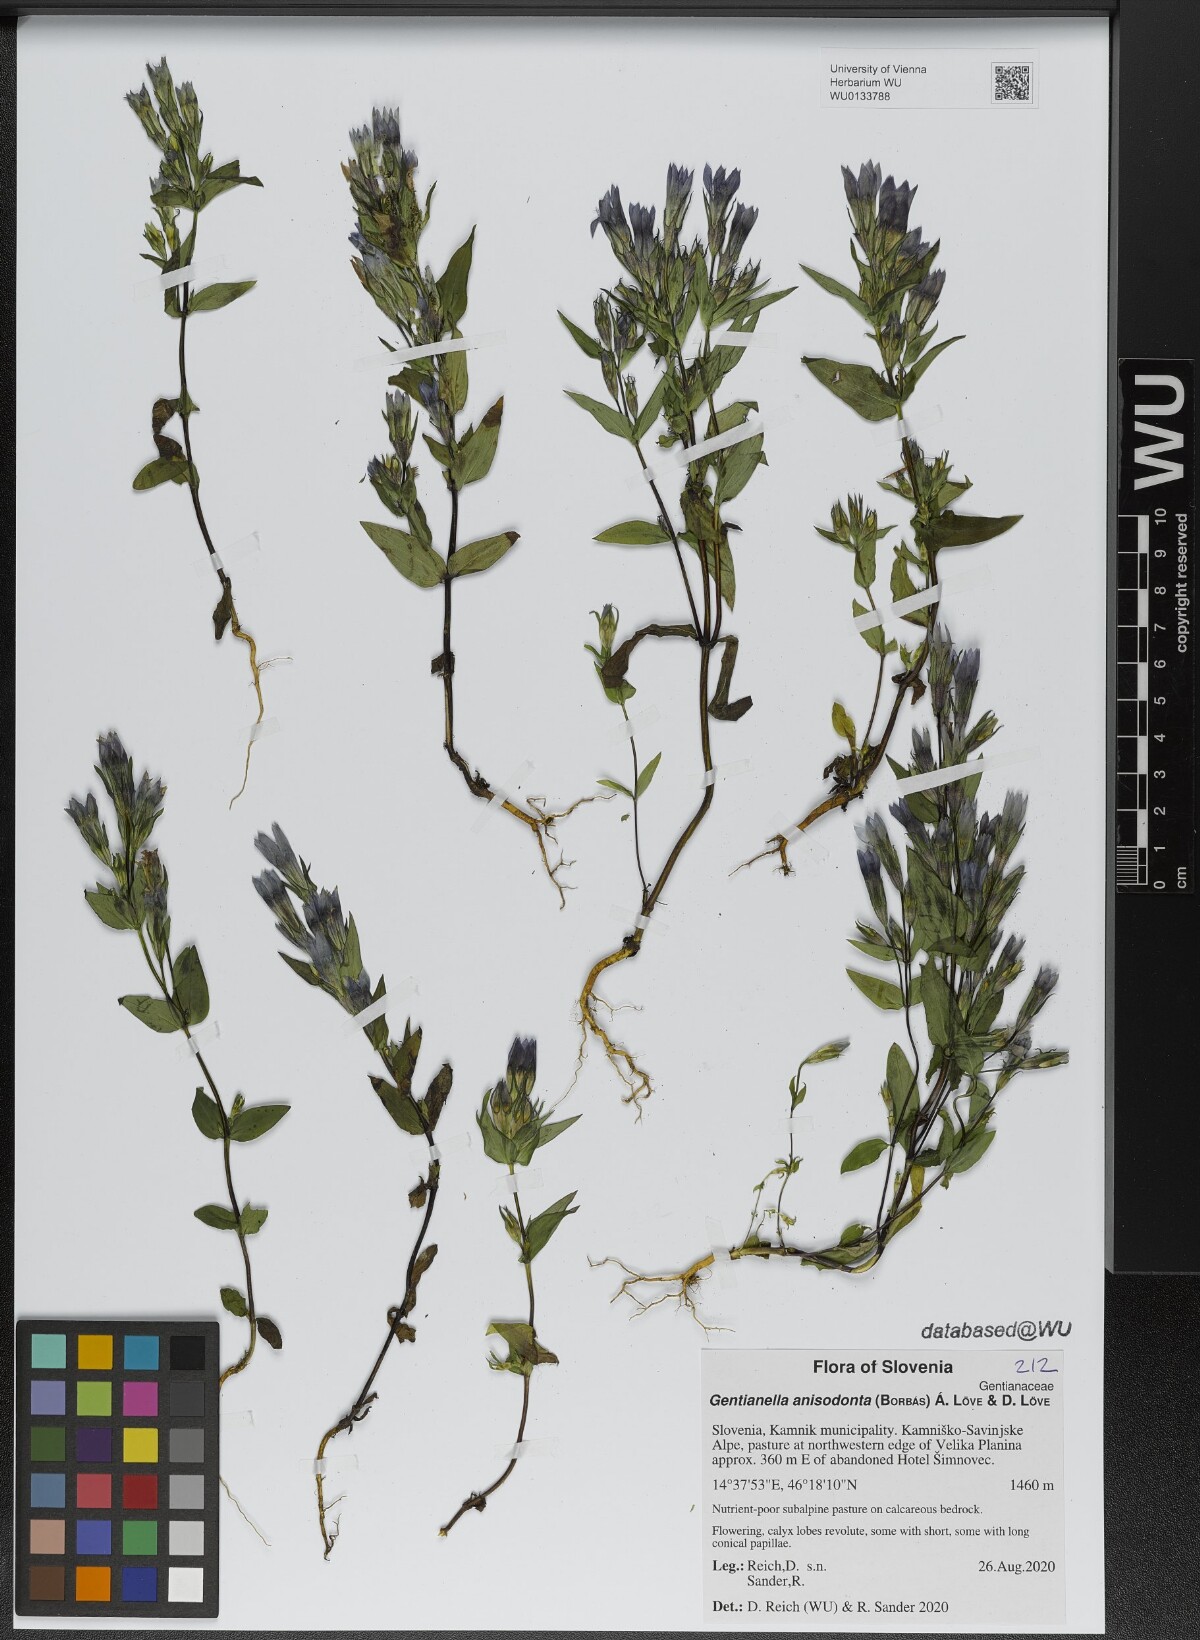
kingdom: Plantae
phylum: Tracheophyta
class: Magnoliopsida
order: Gentianales
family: Gentianaceae
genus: Gentianella
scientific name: Gentianella anisodonta
